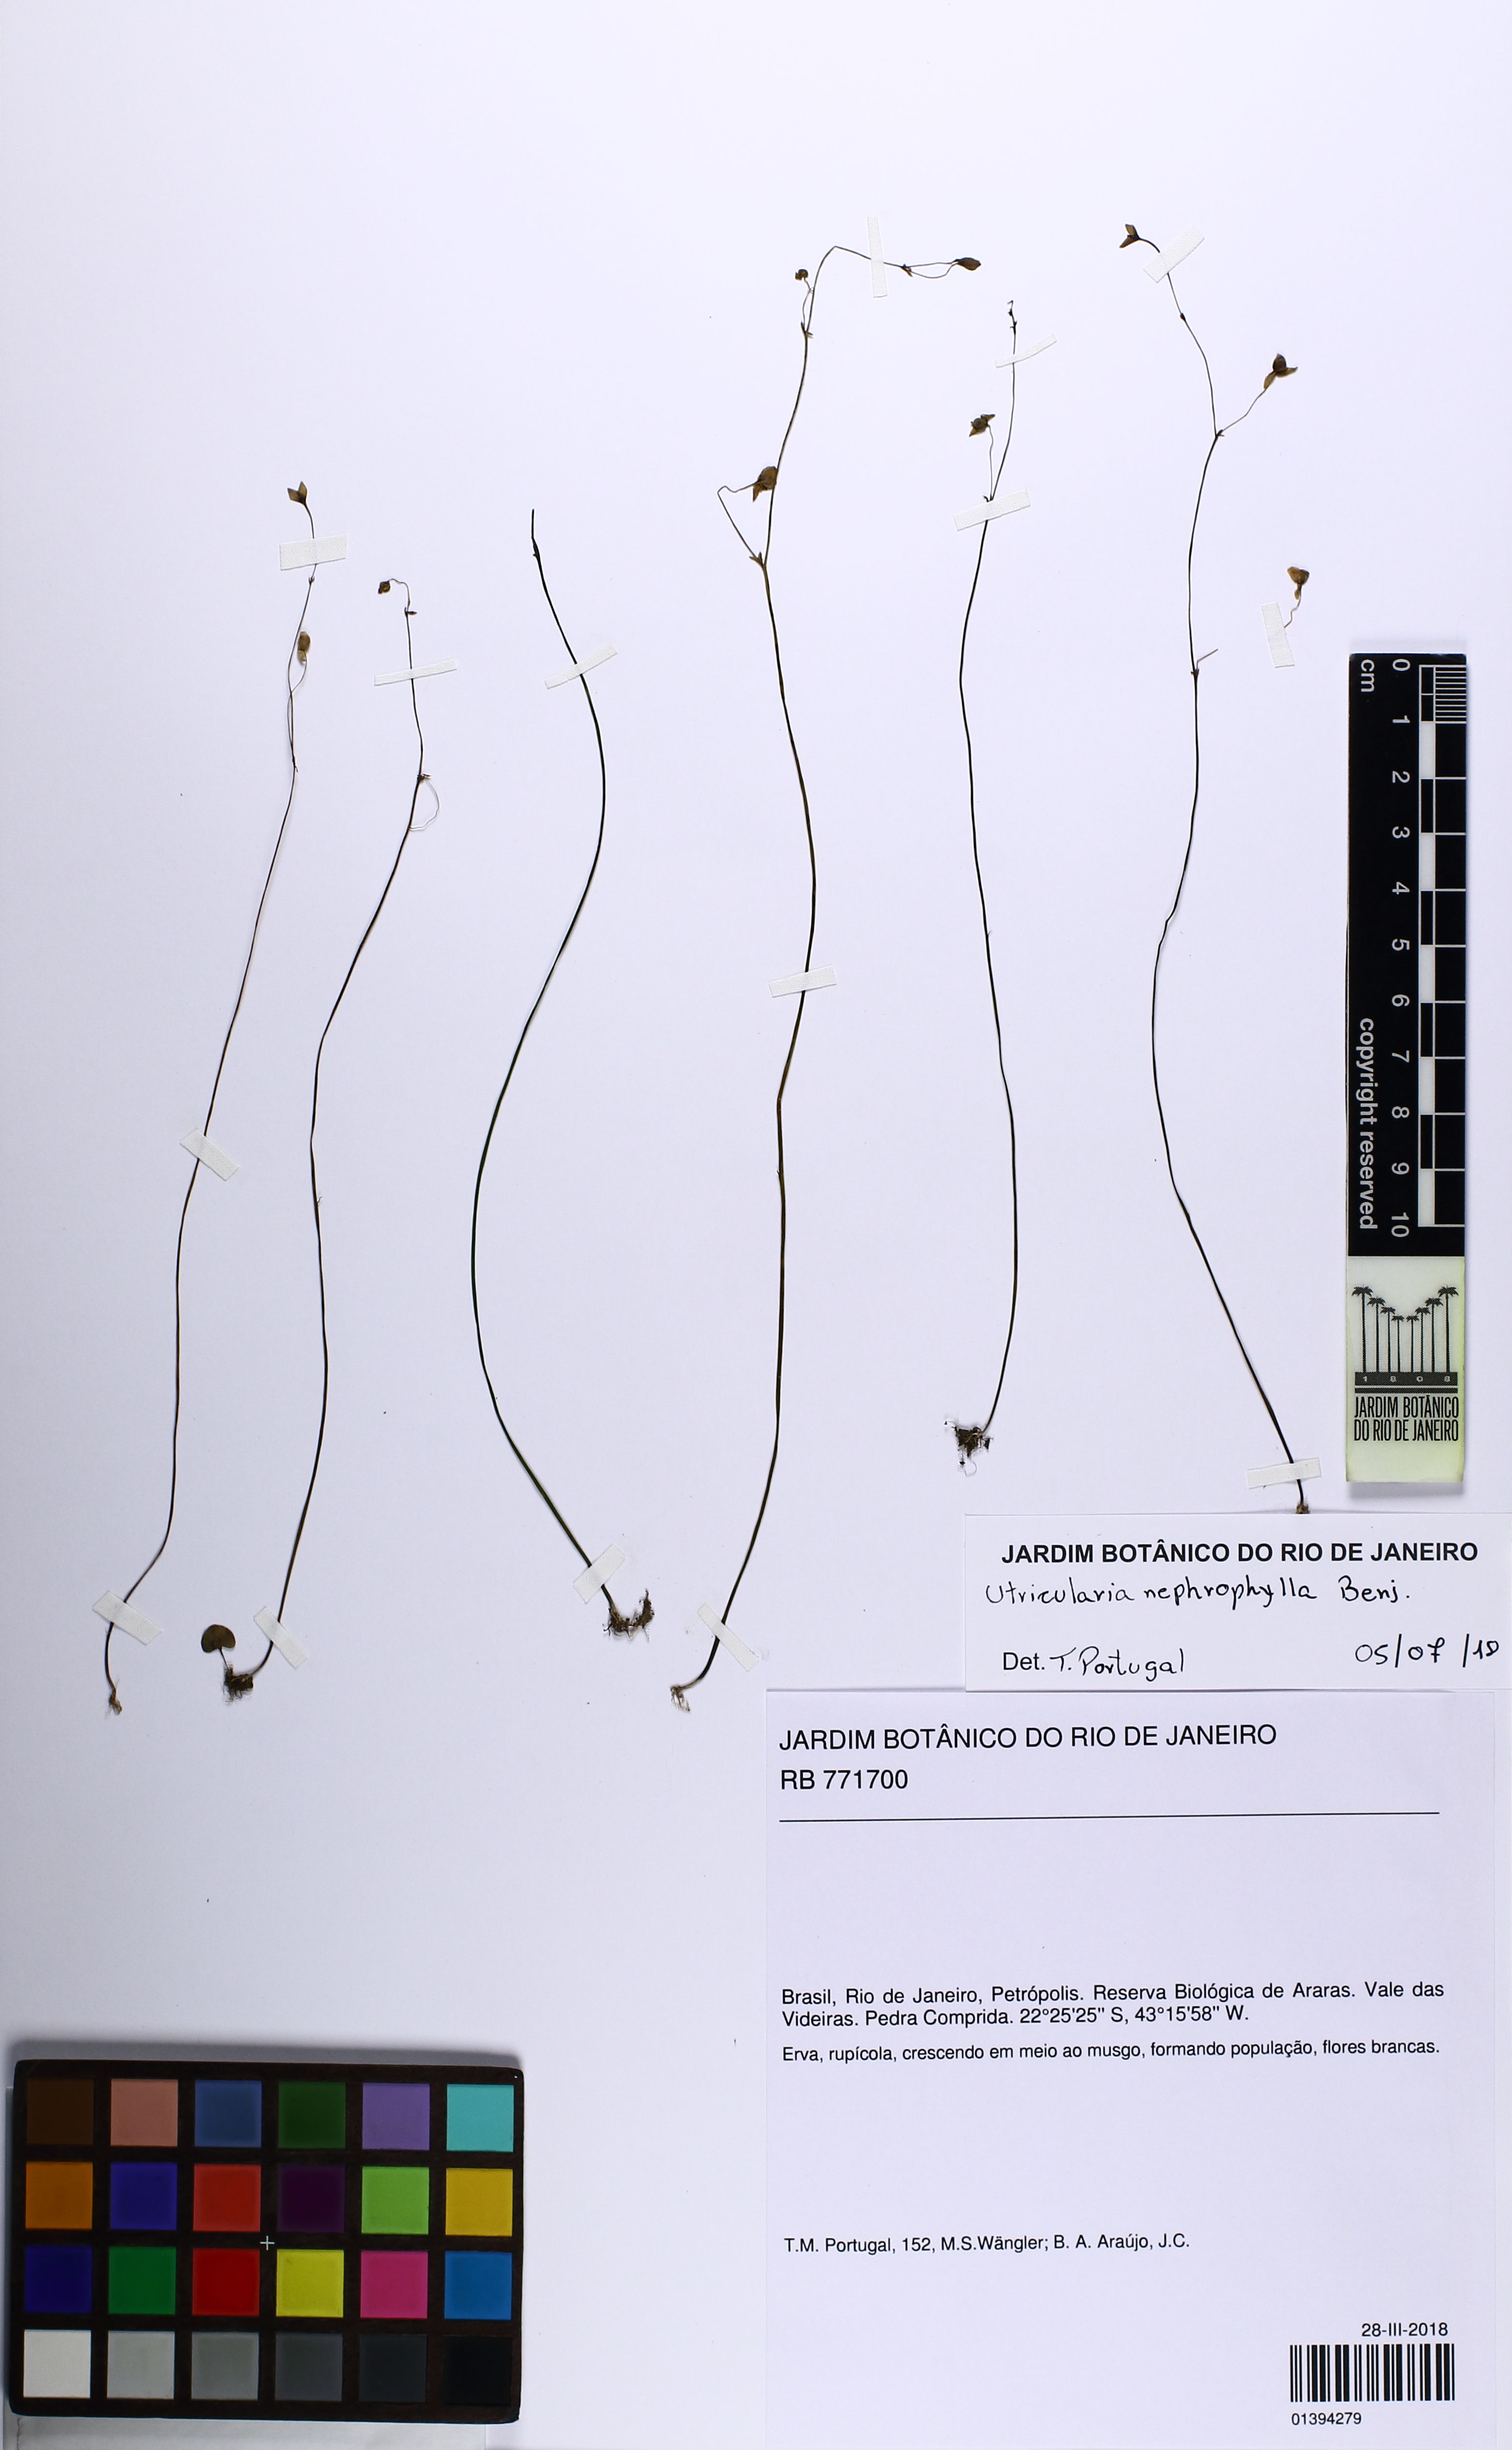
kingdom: Plantae
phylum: Tracheophyta
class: Magnoliopsida
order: Lamiales
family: Lentibulariaceae
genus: Utricularia
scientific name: Utricularia nephrophylla
